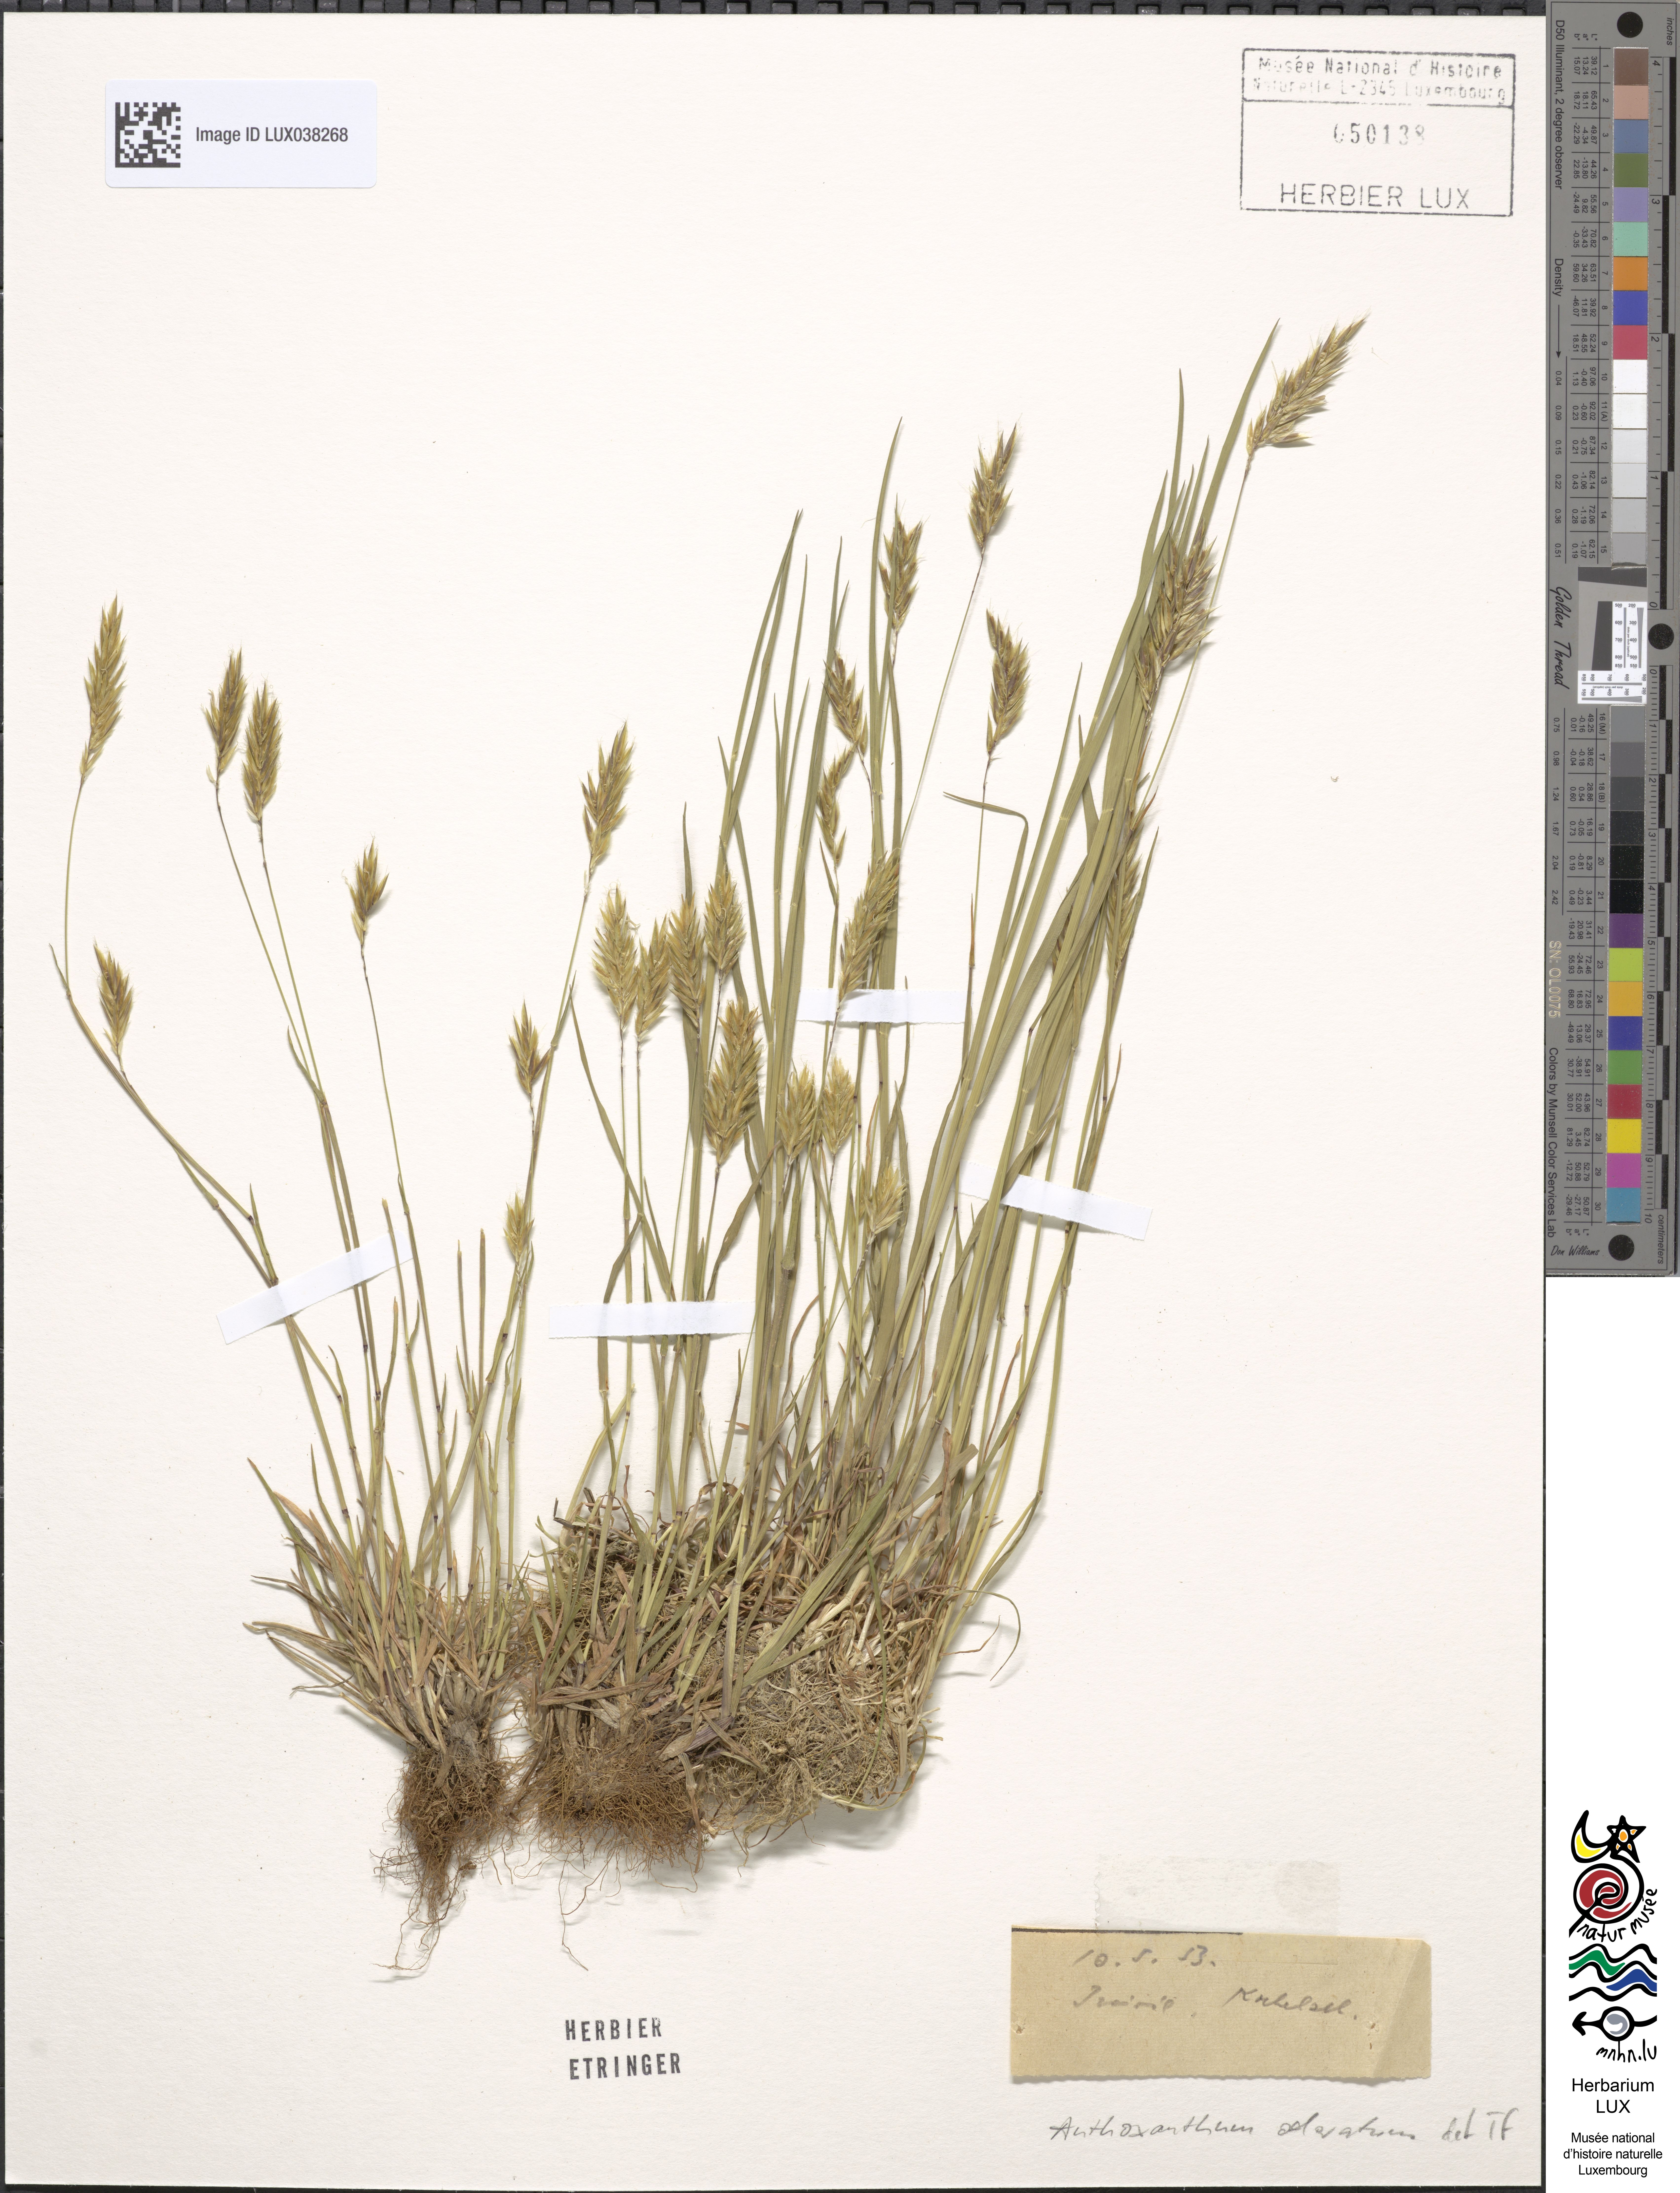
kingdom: Plantae
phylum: Tracheophyta
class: Liliopsida
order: Poales
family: Poaceae
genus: Anthoxanthum
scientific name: Anthoxanthum odoratum
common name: Sweet vernalgrass
